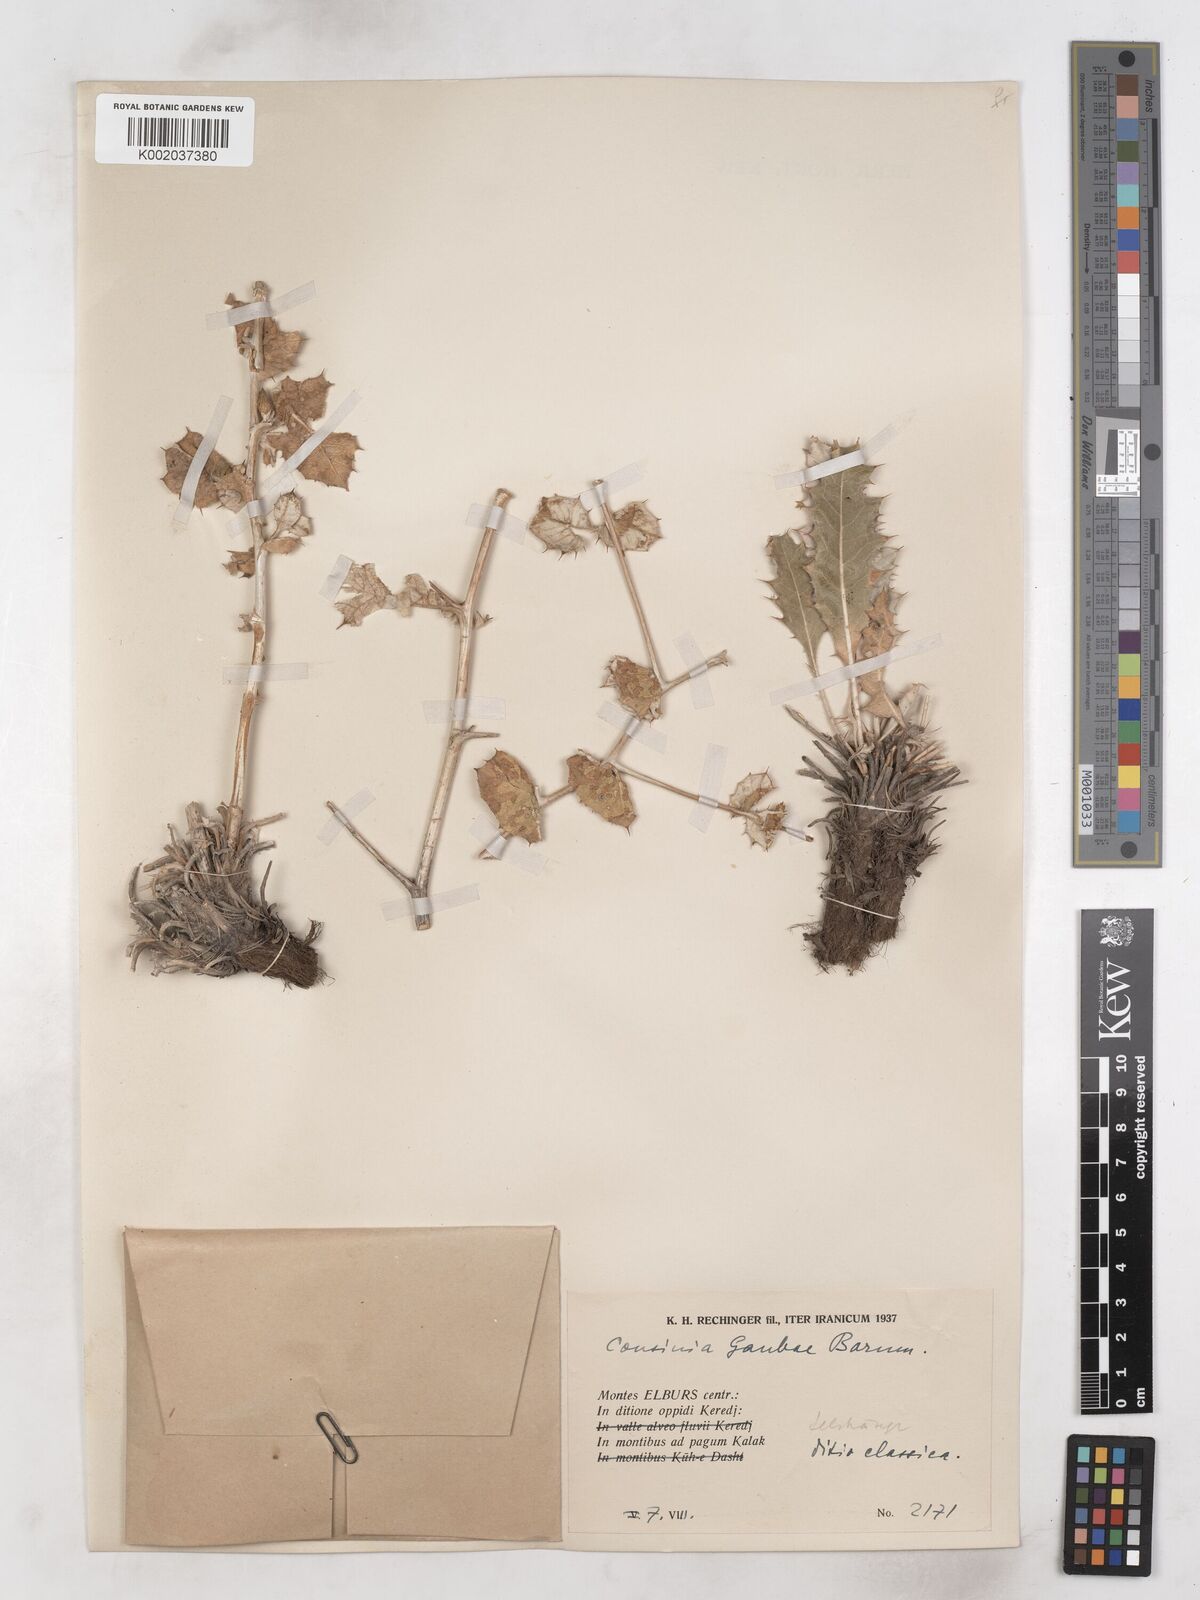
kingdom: Plantae
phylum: Tracheophyta
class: Magnoliopsida
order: Asterales
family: Asteraceae
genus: Cousinia
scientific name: Cousinia gaubae
